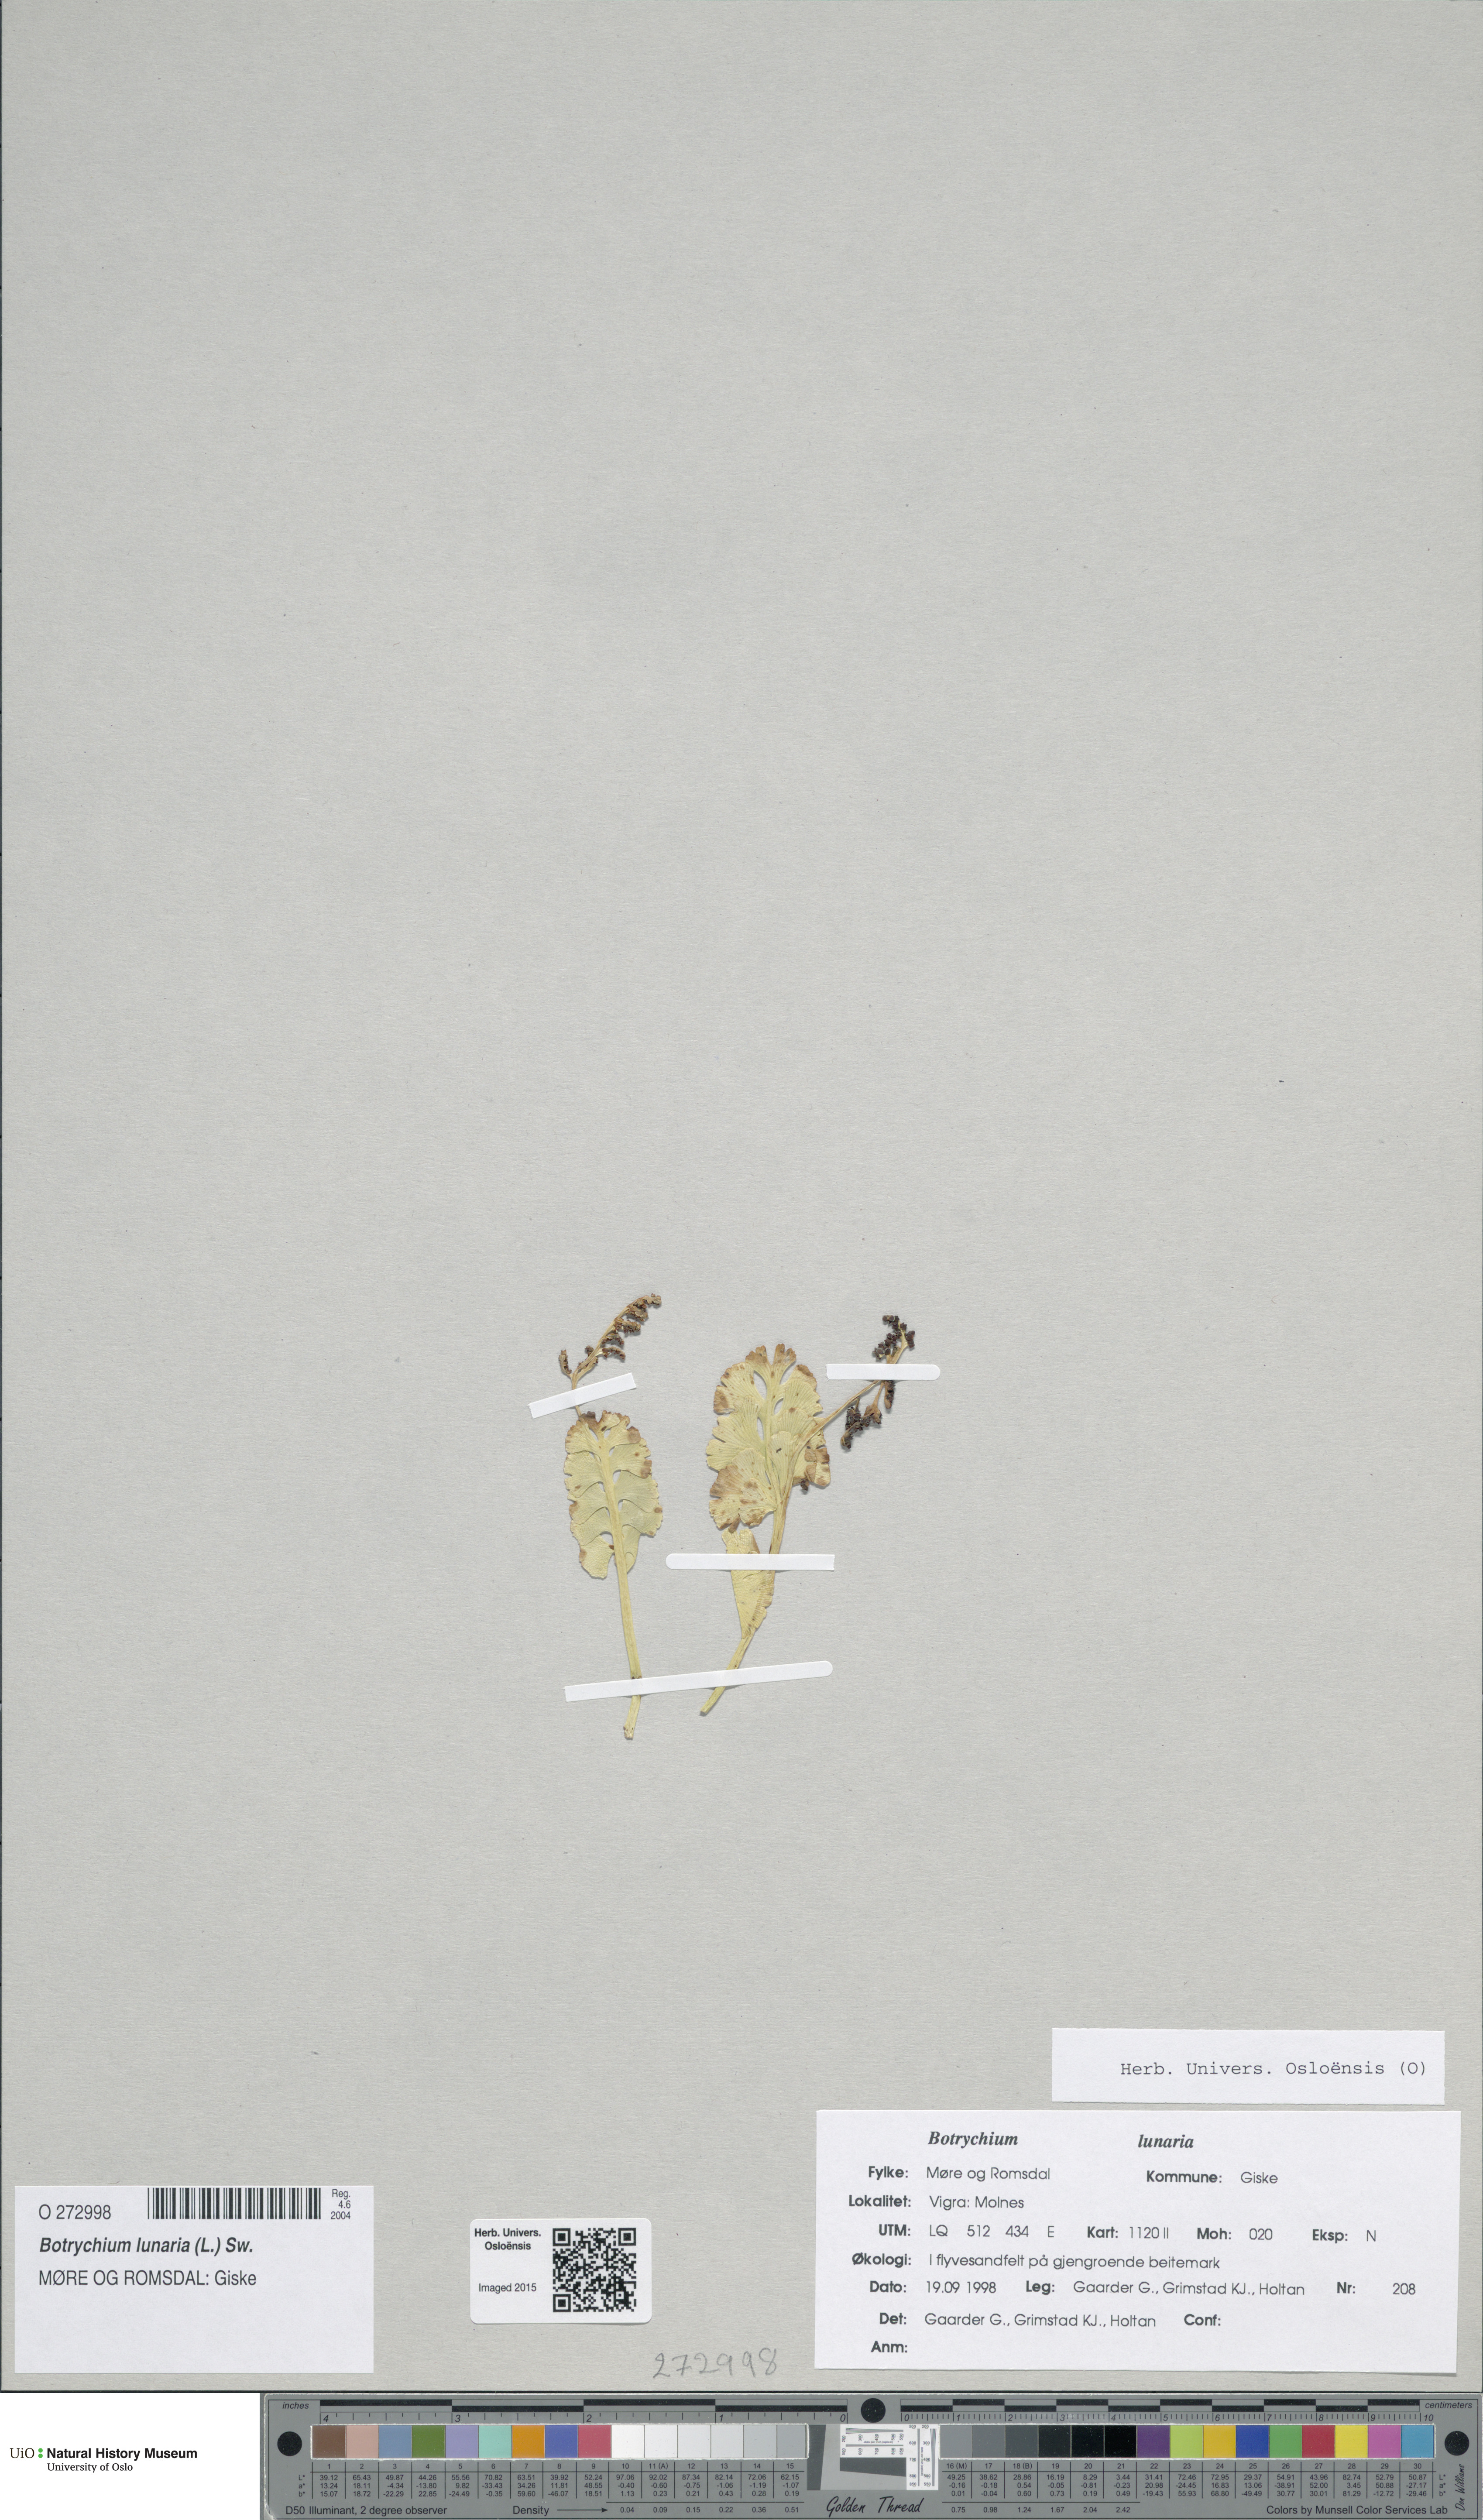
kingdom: Plantae
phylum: Tracheophyta
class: Polypodiopsida
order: Ophioglossales
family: Ophioglossaceae
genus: Botrychium
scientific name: Botrychium lunaria
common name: Moonwort
